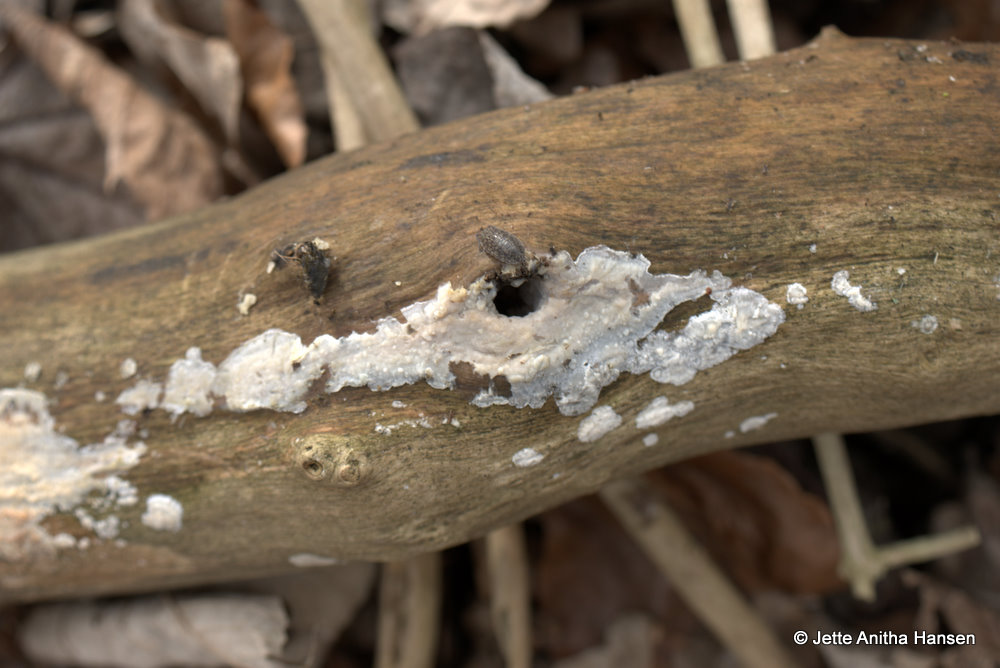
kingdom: Fungi
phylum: Basidiomycota
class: Agaricomycetes
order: Agaricales
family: Radulomycetaceae
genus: Radulomyces
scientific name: Radulomyces confluens
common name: glat naftalinskind
